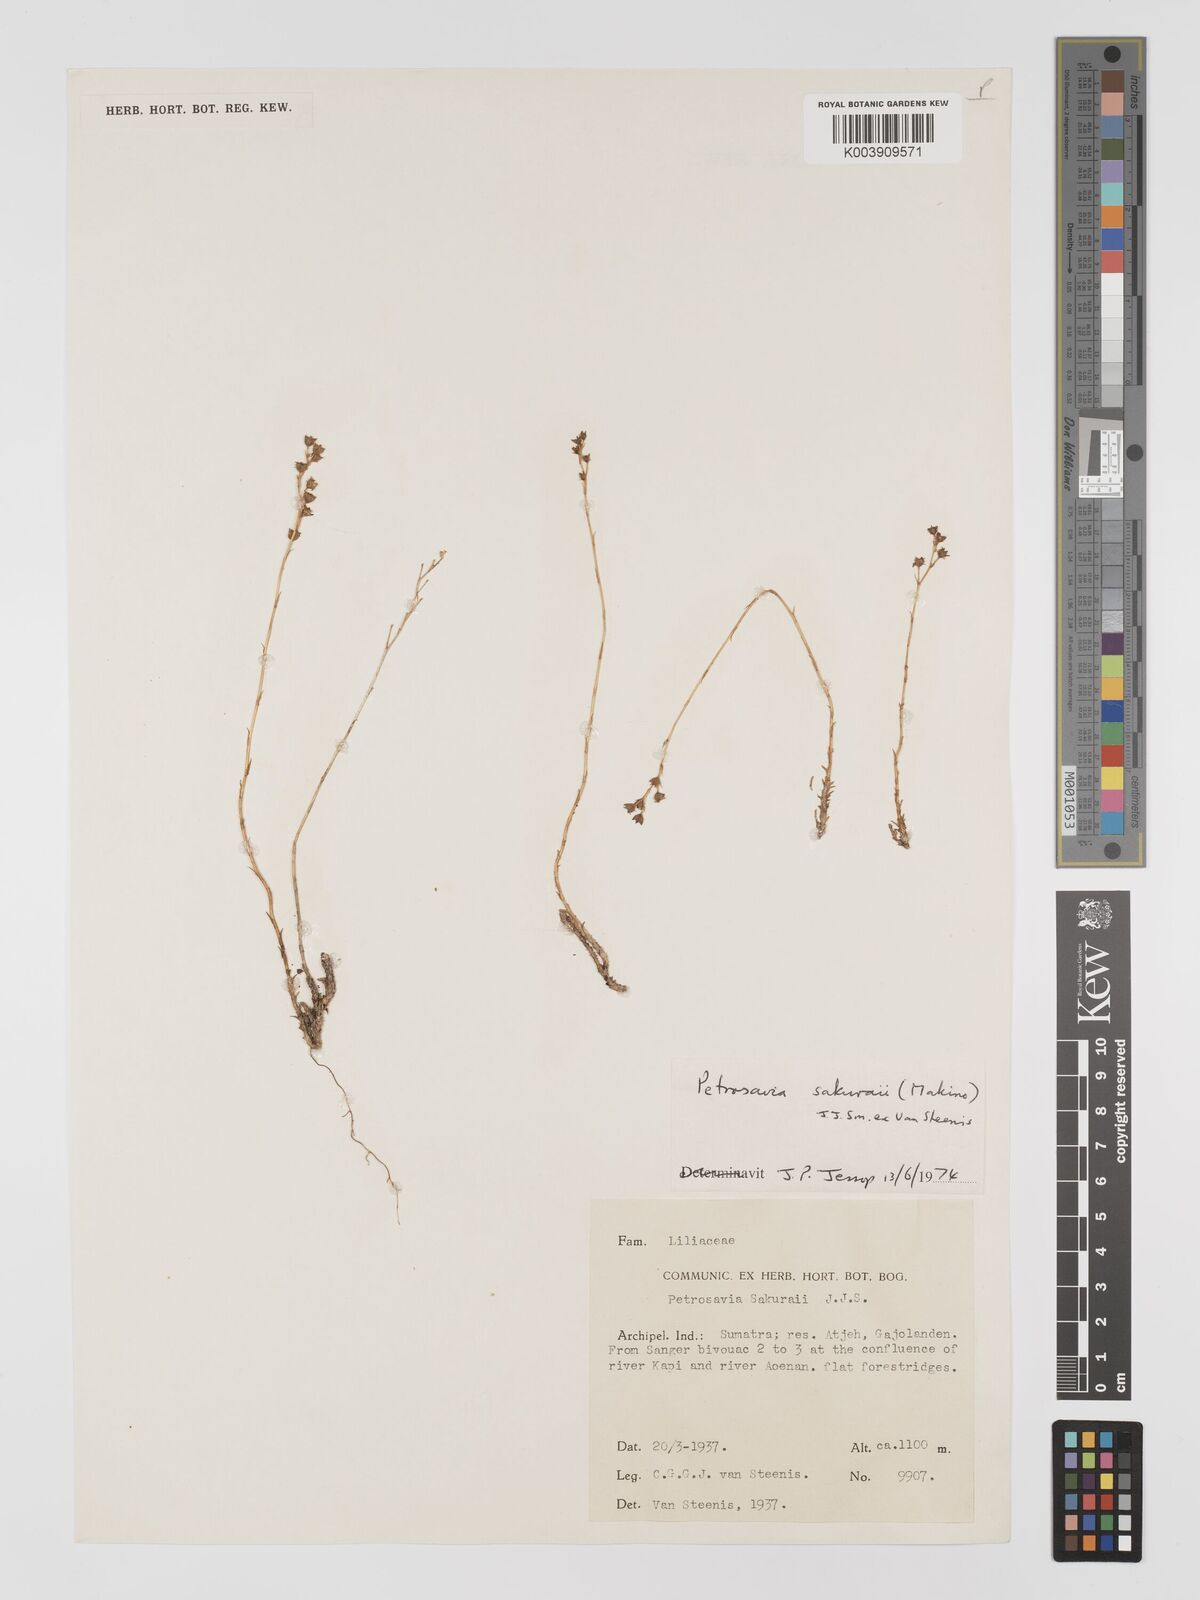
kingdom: Plantae
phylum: Tracheophyta
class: Liliopsida
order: Petrosaviales
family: Petrosaviaceae
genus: Petrosavia
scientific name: Petrosavia sakuraii
